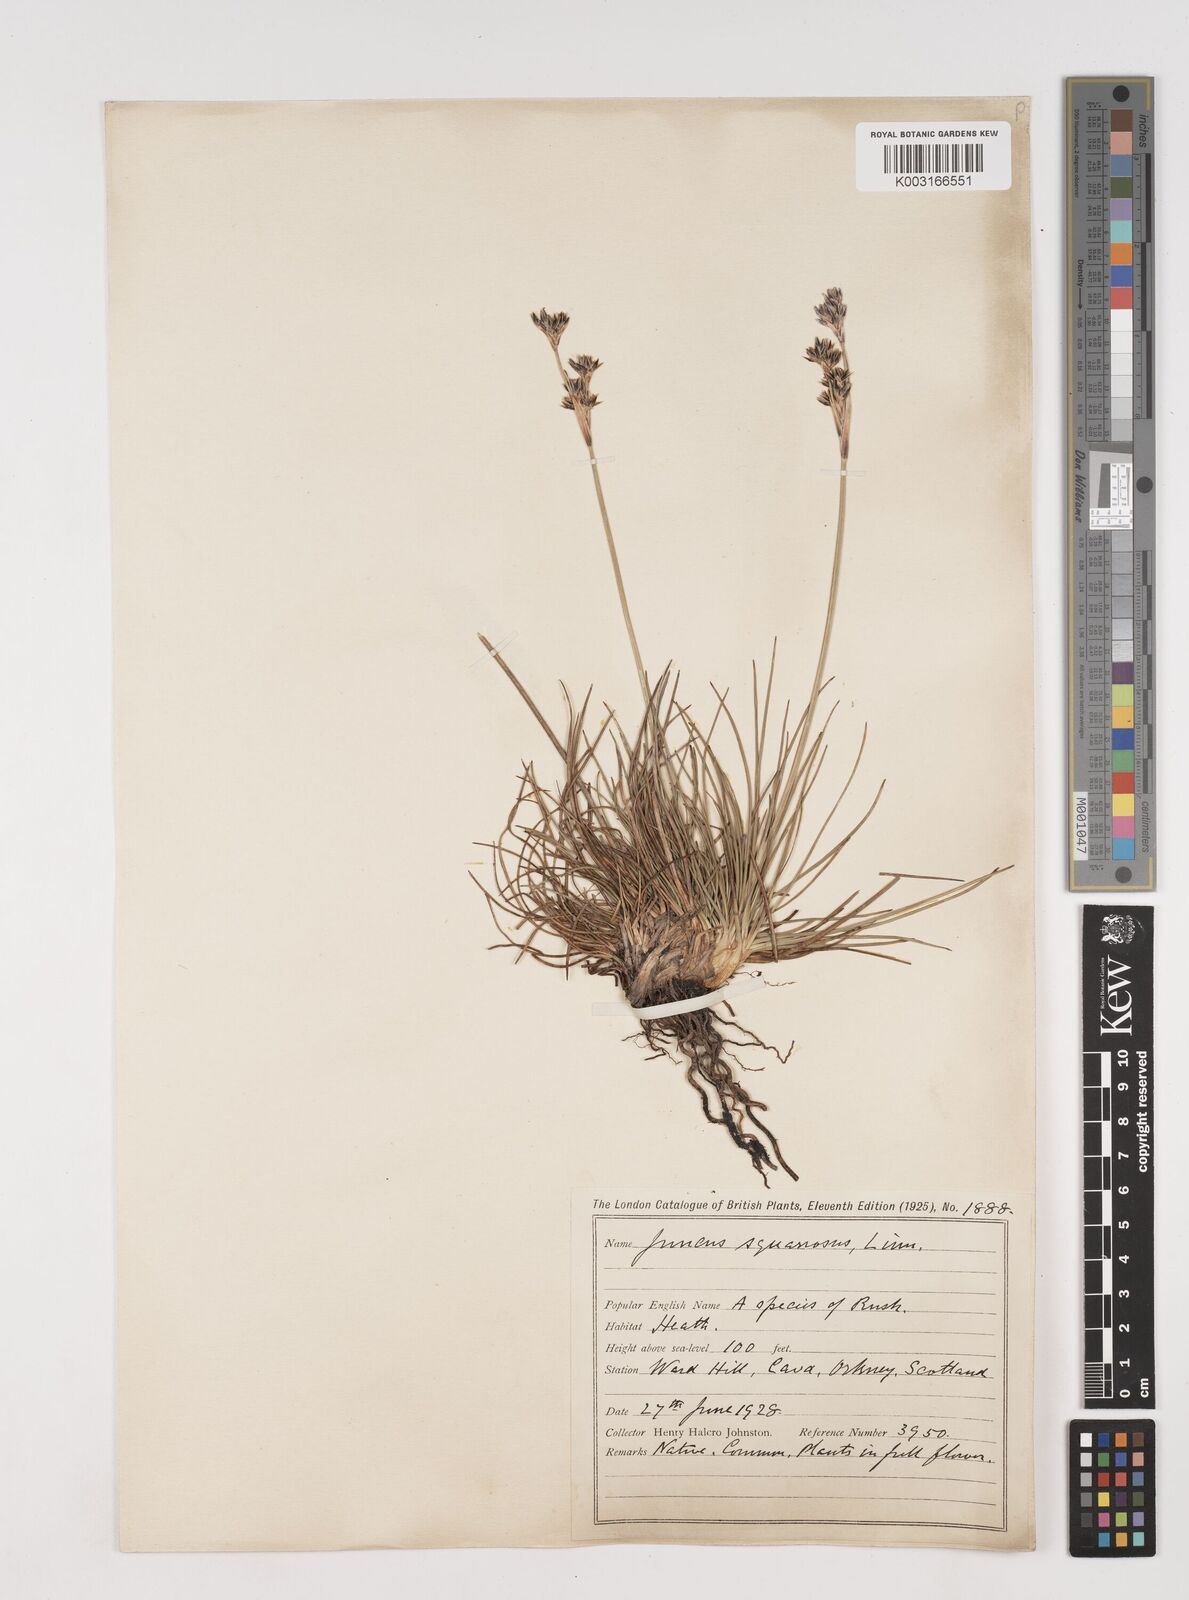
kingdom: Plantae
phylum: Tracheophyta
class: Liliopsida
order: Poales
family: Juncaceae
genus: Juncus
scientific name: Juncus squarrosus
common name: Heath rush
